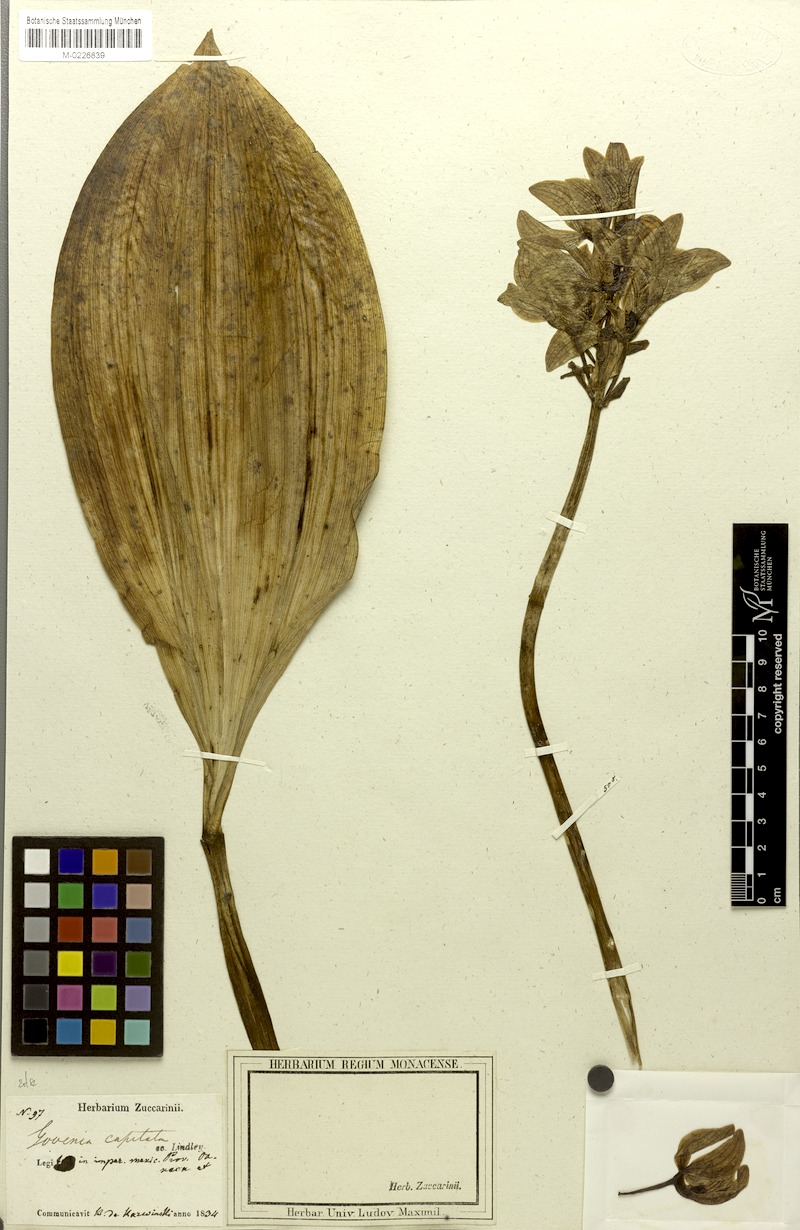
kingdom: Plantae
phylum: Tracheophyta
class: Liliopsida
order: Asparagales
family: Orchidaceae
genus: Govenia
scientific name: Govenia utriculata
